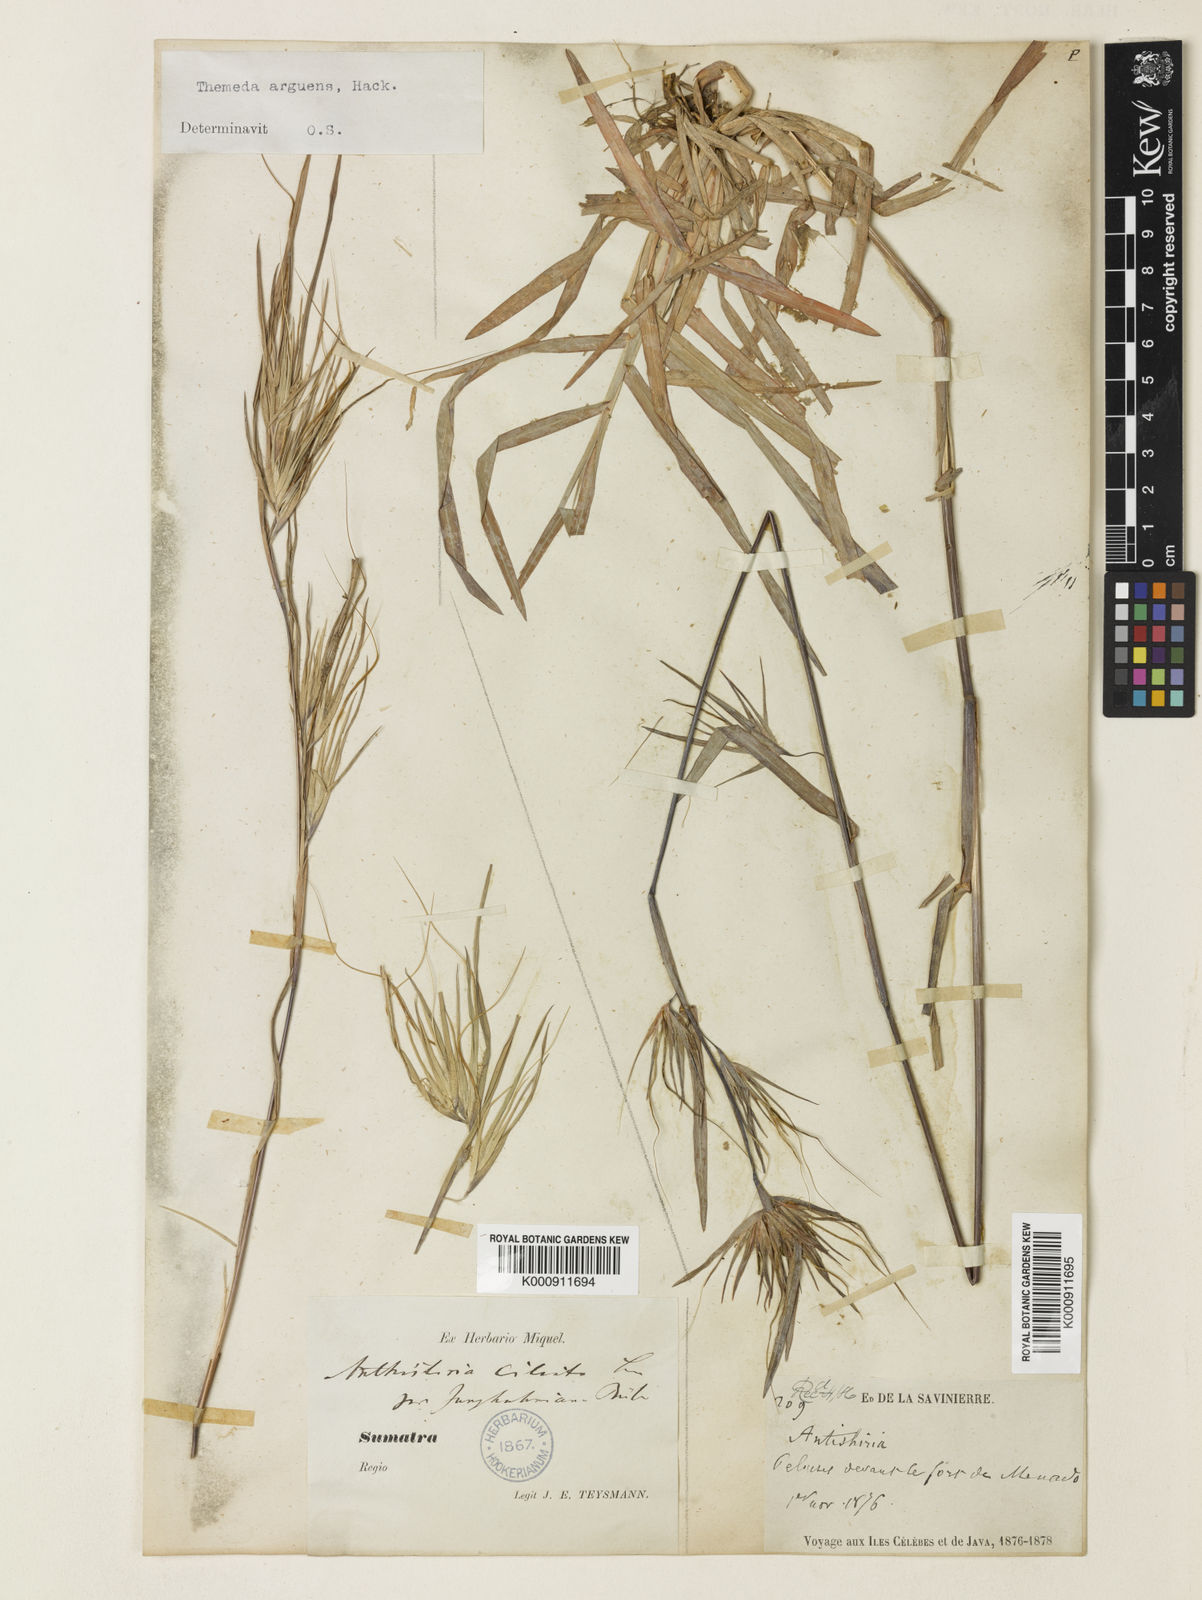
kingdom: Plantae
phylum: Tracheophyta
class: Liliopsida
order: Poales
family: Poaceae
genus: Themeda
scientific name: Themeda arguens
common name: Christmas grass
